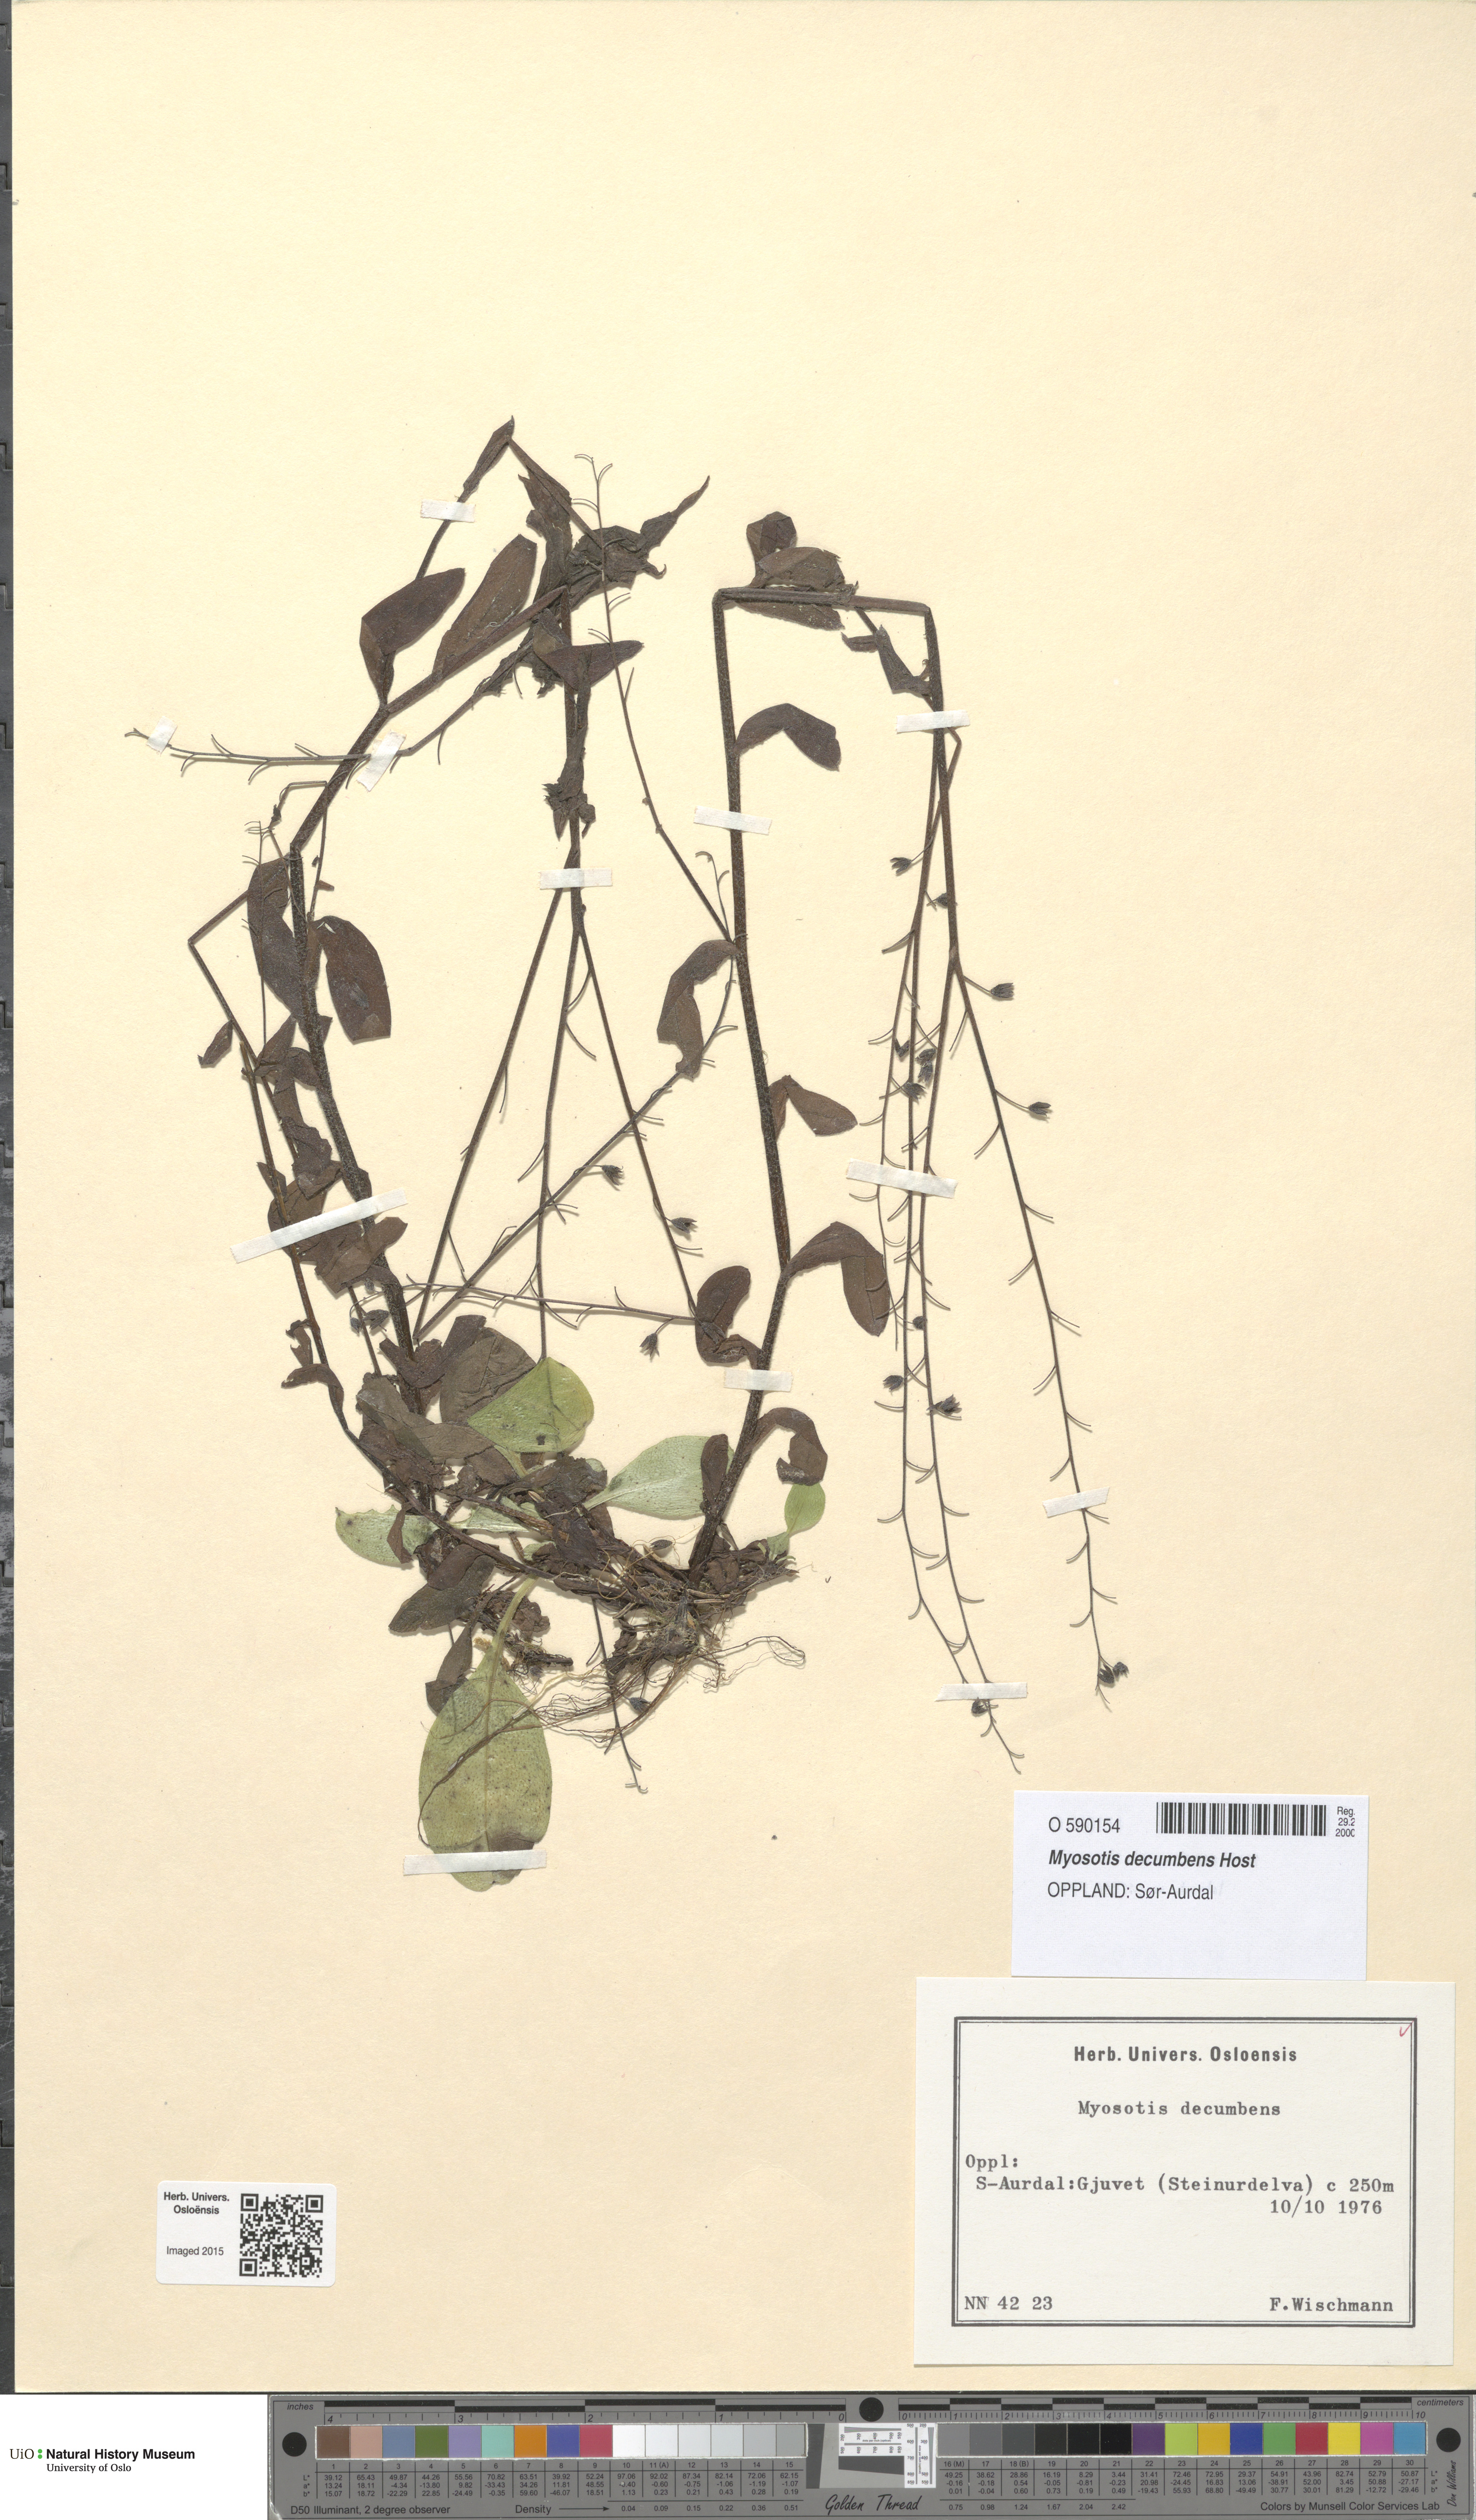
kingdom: Plantae
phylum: Tracheophyta
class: Magnoliopsida
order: Boraginales
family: Boraginaceae
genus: Myosotis
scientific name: Myosotis decumbens
